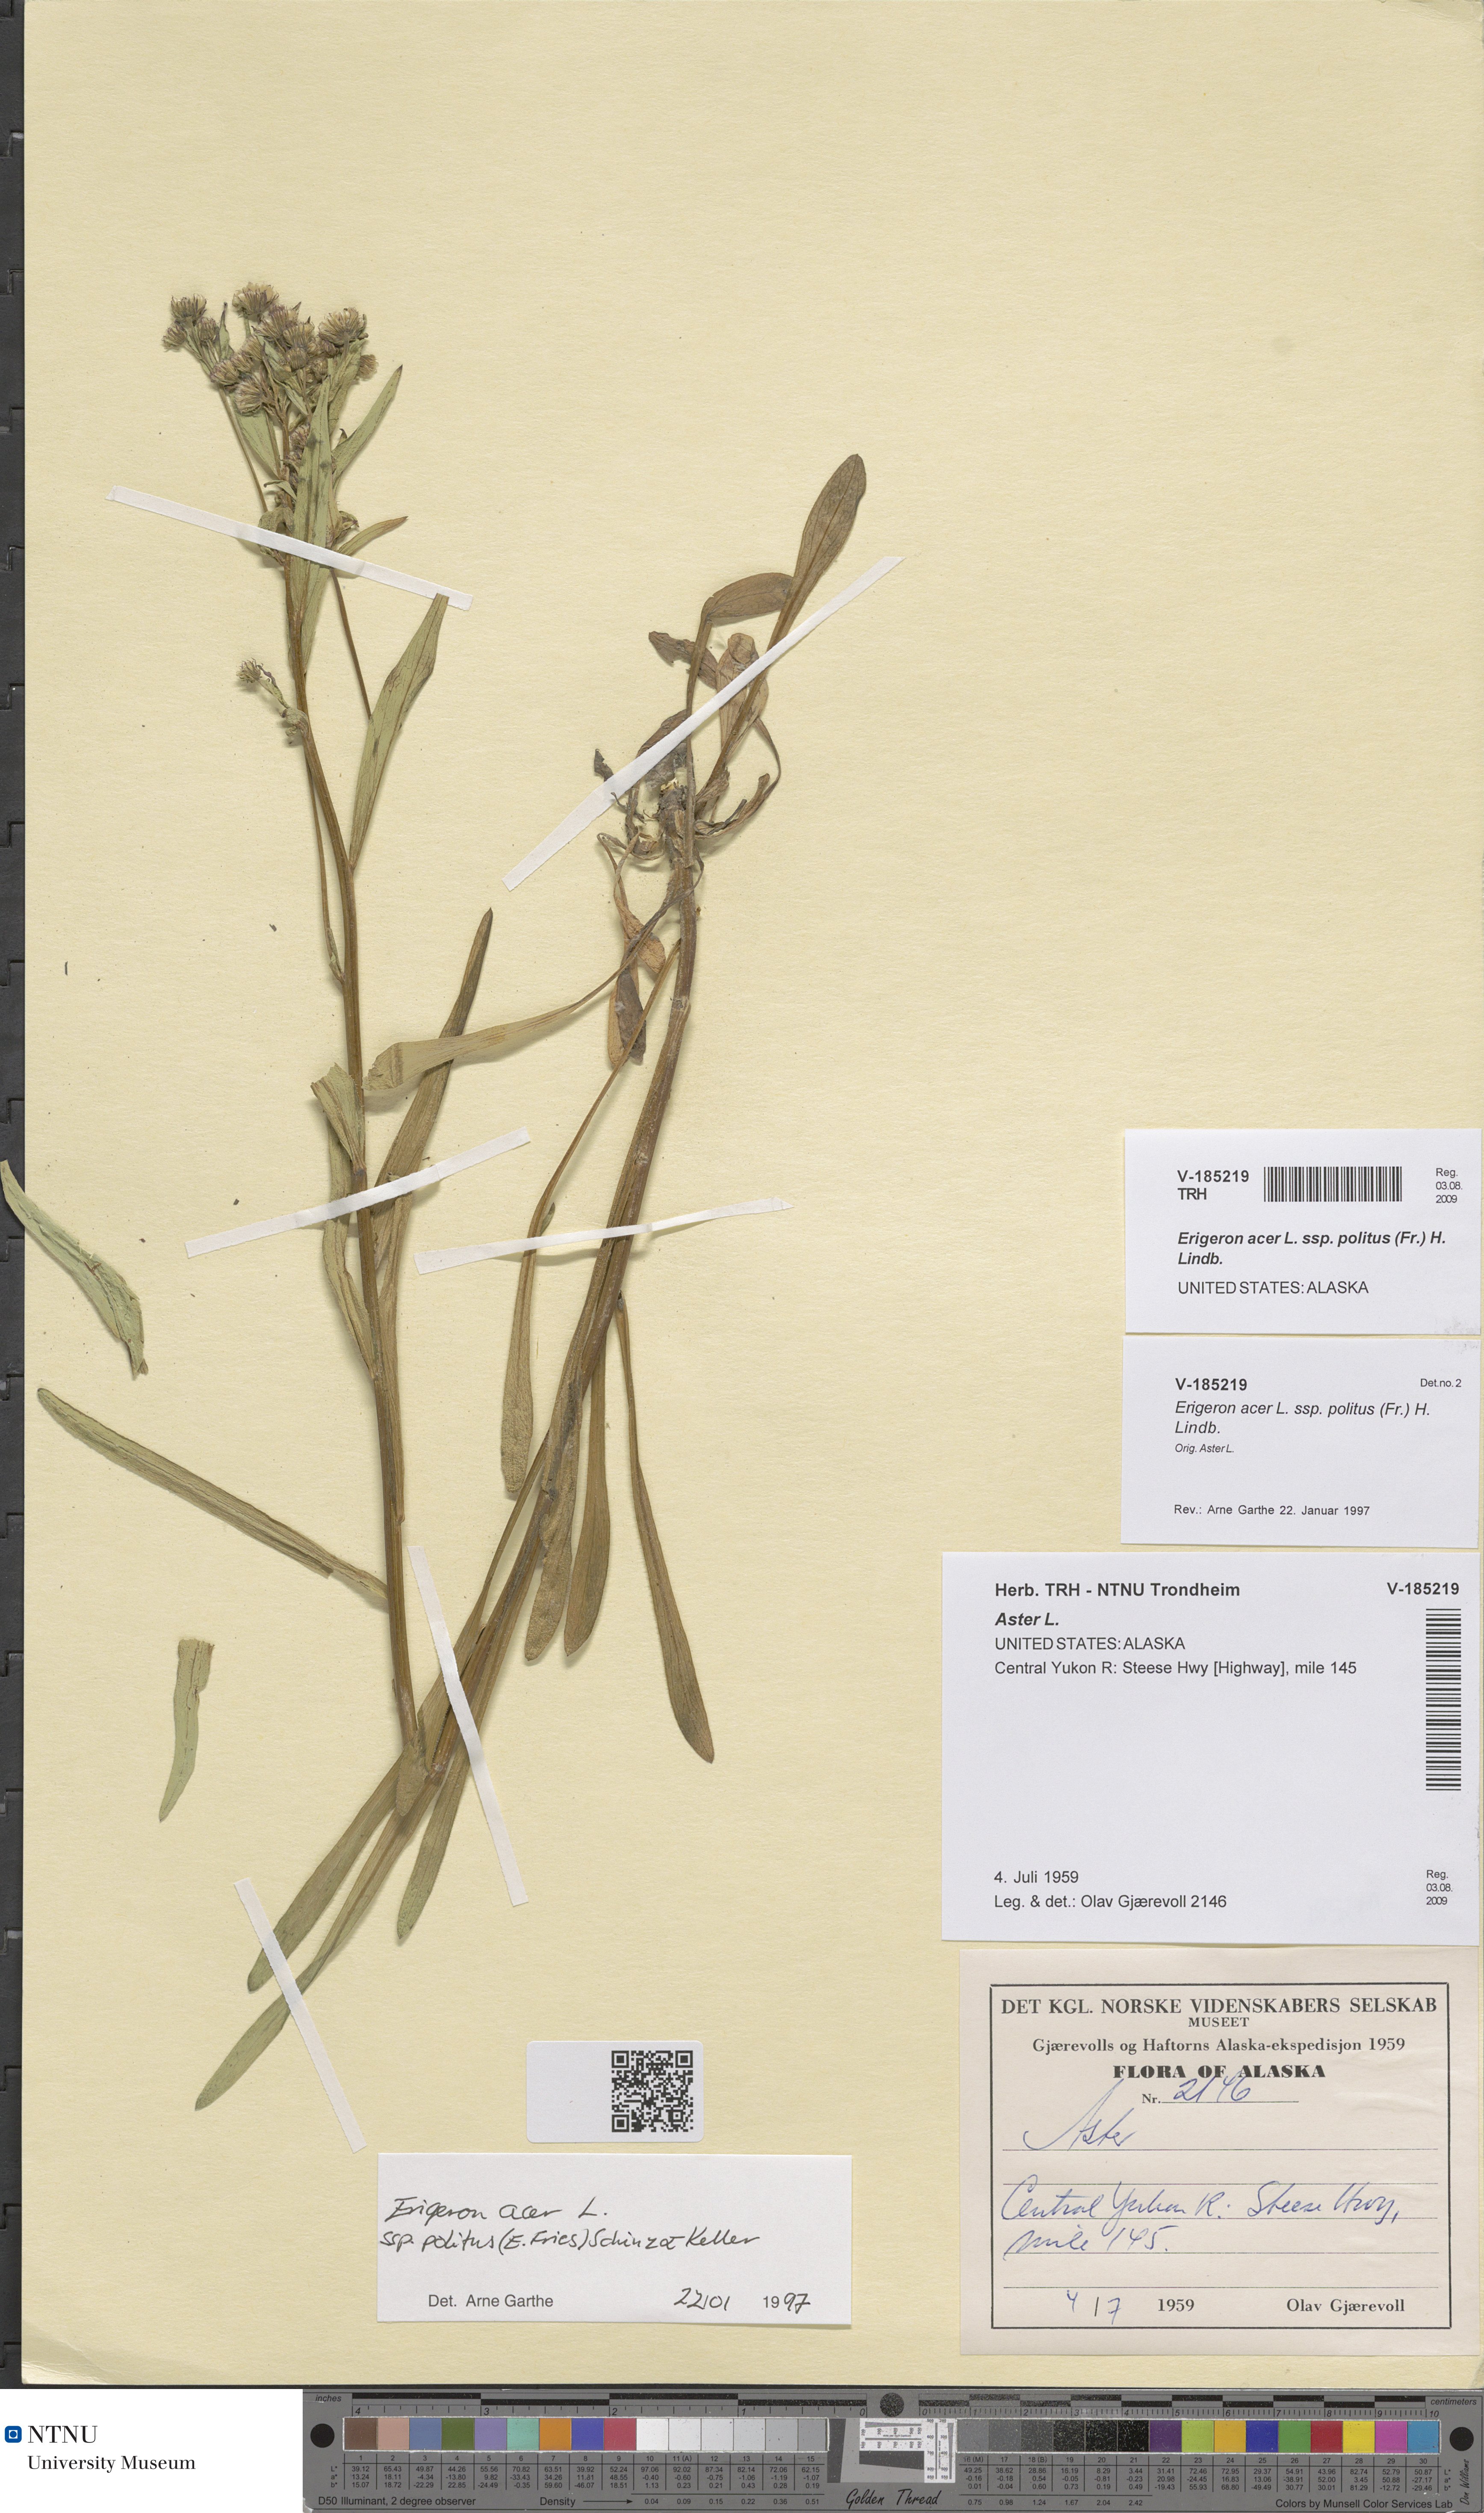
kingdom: Plantae
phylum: Tracheophyta
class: Magnoliopsida
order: Asterales
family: Asteraceae
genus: Erigeron
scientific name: Erigeron politus
